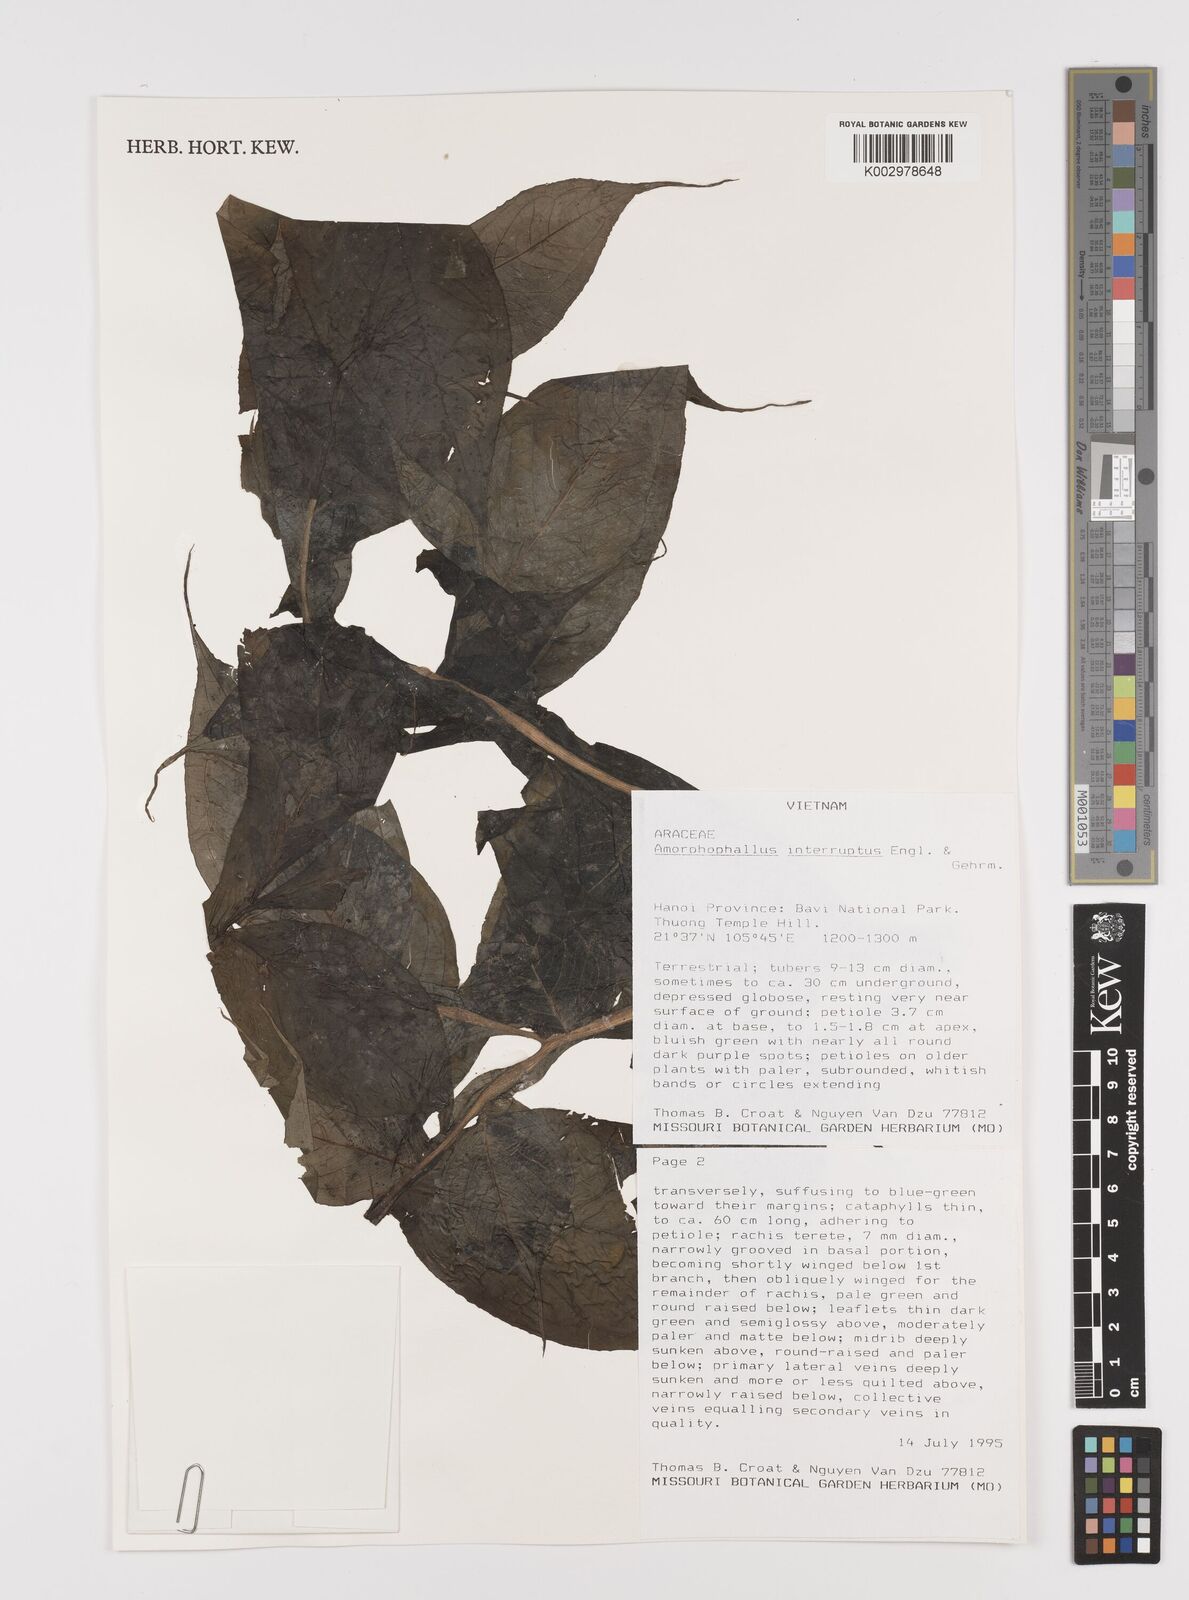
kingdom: Plantae
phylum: Tracheophyta
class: Liliopsida
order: Alismatales
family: Araceae
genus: Amorphophallus
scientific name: Amorphophallus interruptus
